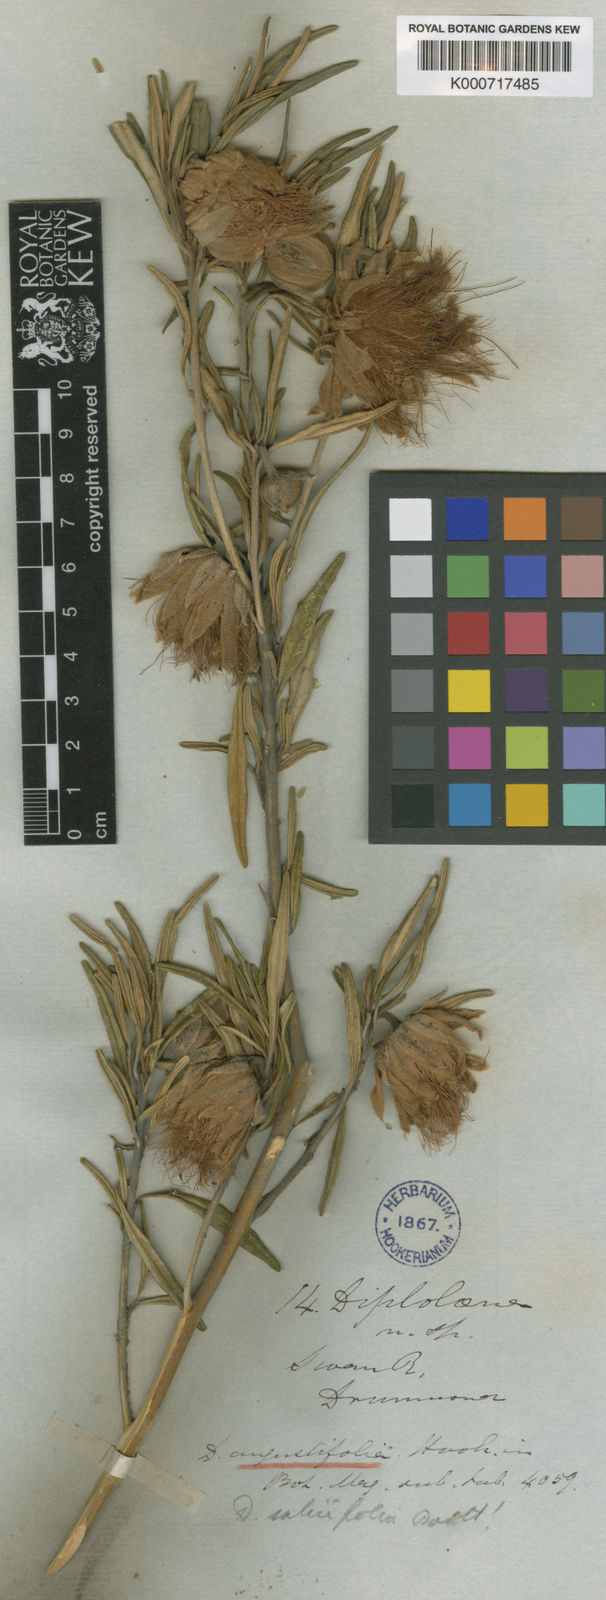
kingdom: Plantae
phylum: Tracheophyta
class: Magnoliopsida
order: Sapindales
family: Rutaceae
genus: Diplolaena
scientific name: Diplolaena angustifolia
